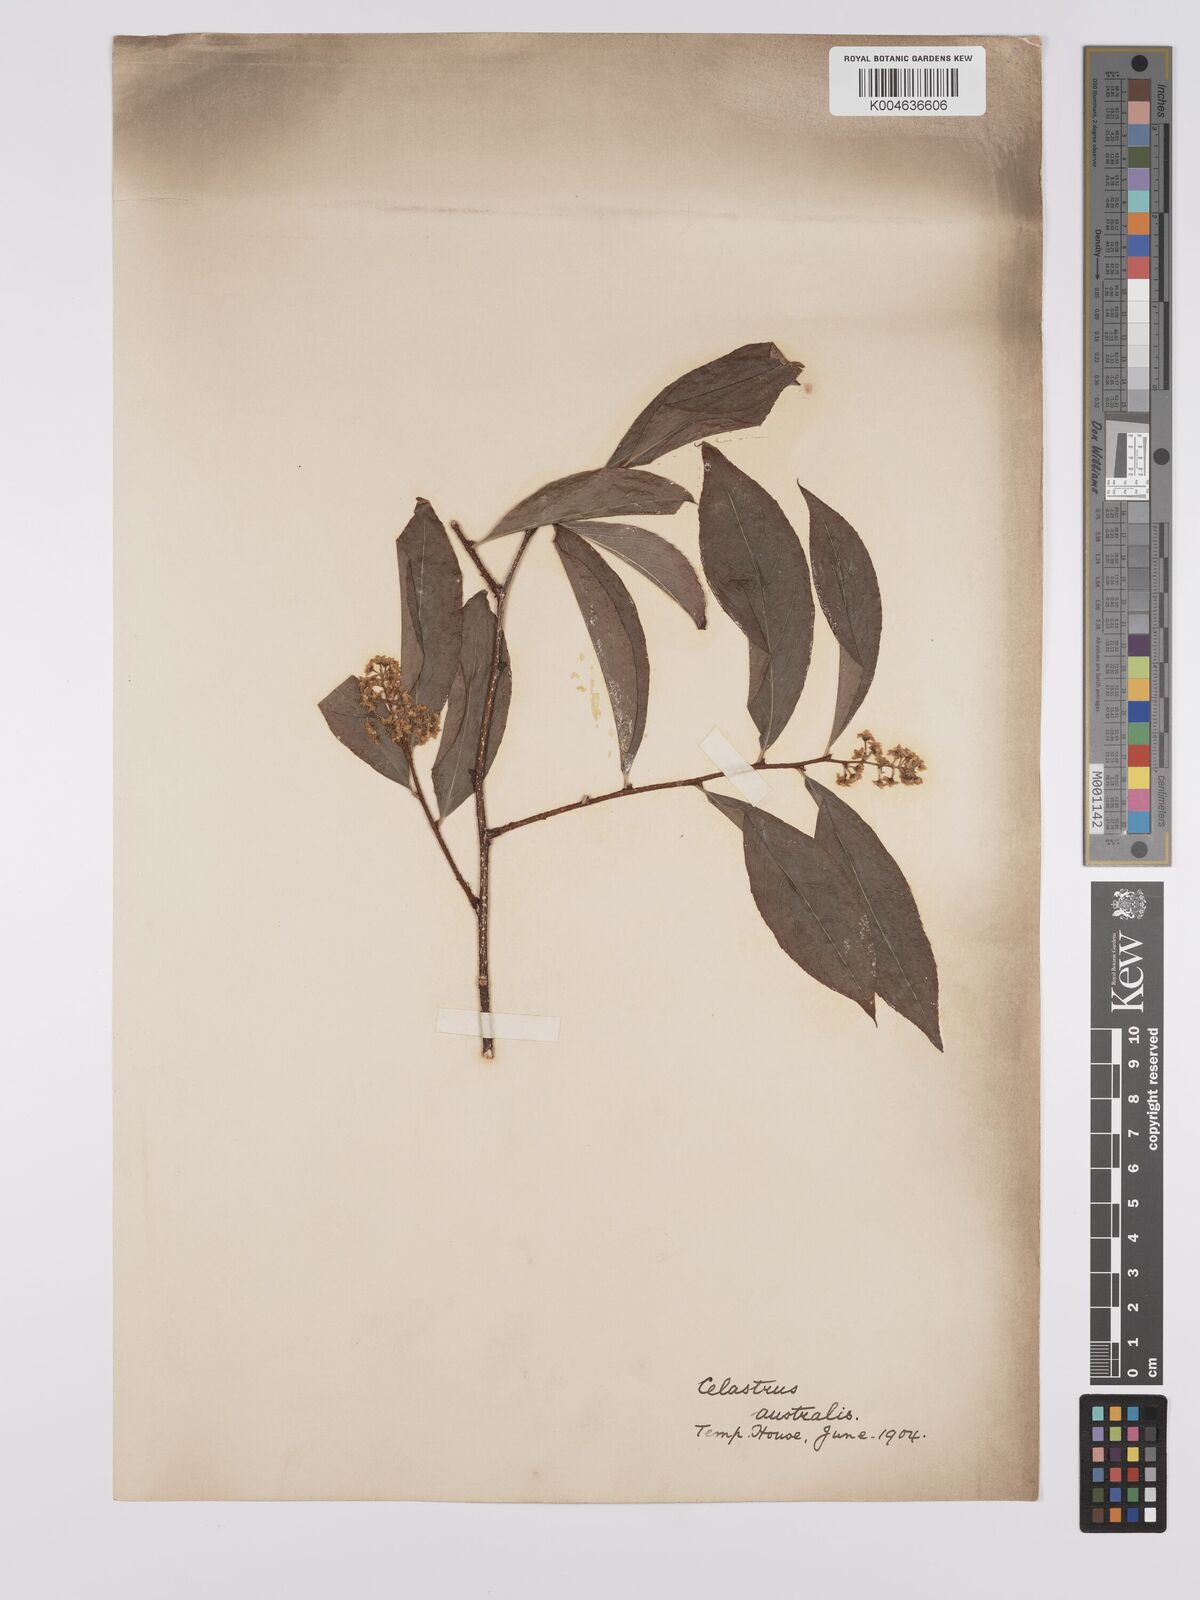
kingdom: Plantae
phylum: Tracheophyta
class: Magnoliopsida
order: Celastrales
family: Celastraceae
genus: Celastrus
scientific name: Celastrus australis
